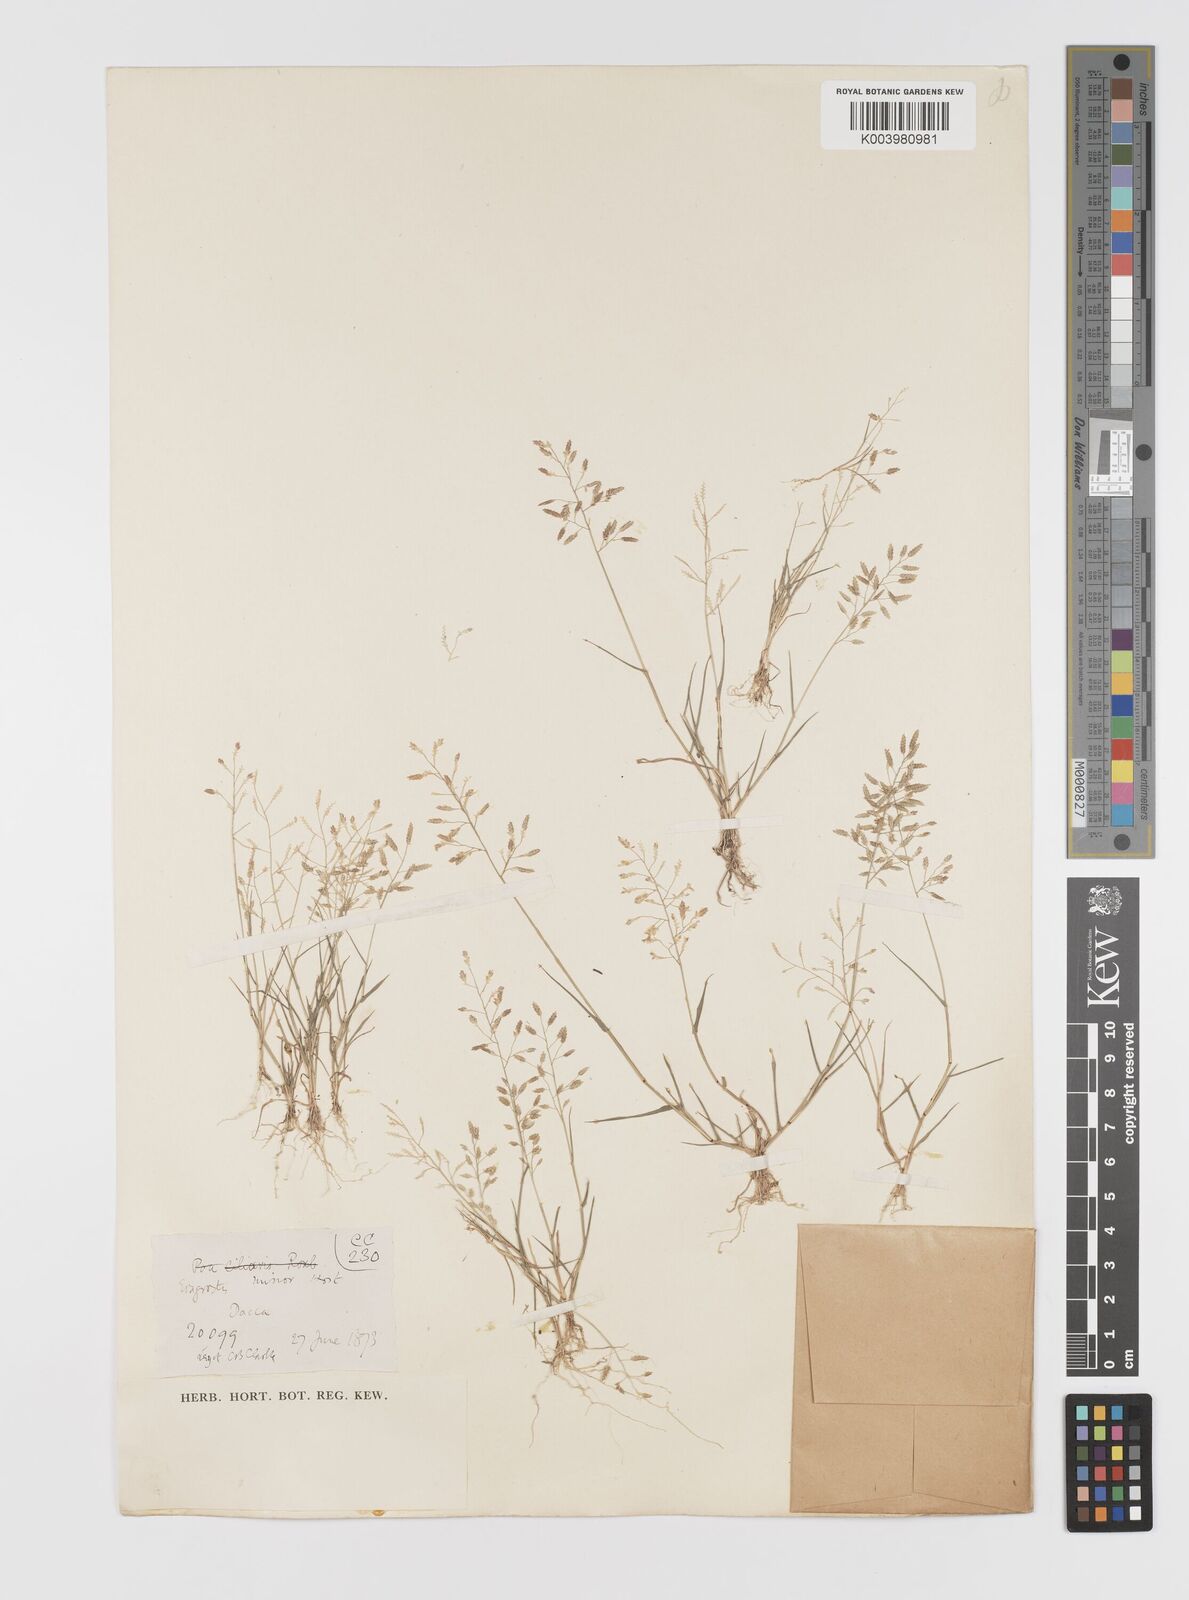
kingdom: Plantae
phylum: Tracheophyta
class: Liliopsida
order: Poales
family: Poaceae
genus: Eragrostis
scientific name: Eragrostis minor
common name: Small love-grass
